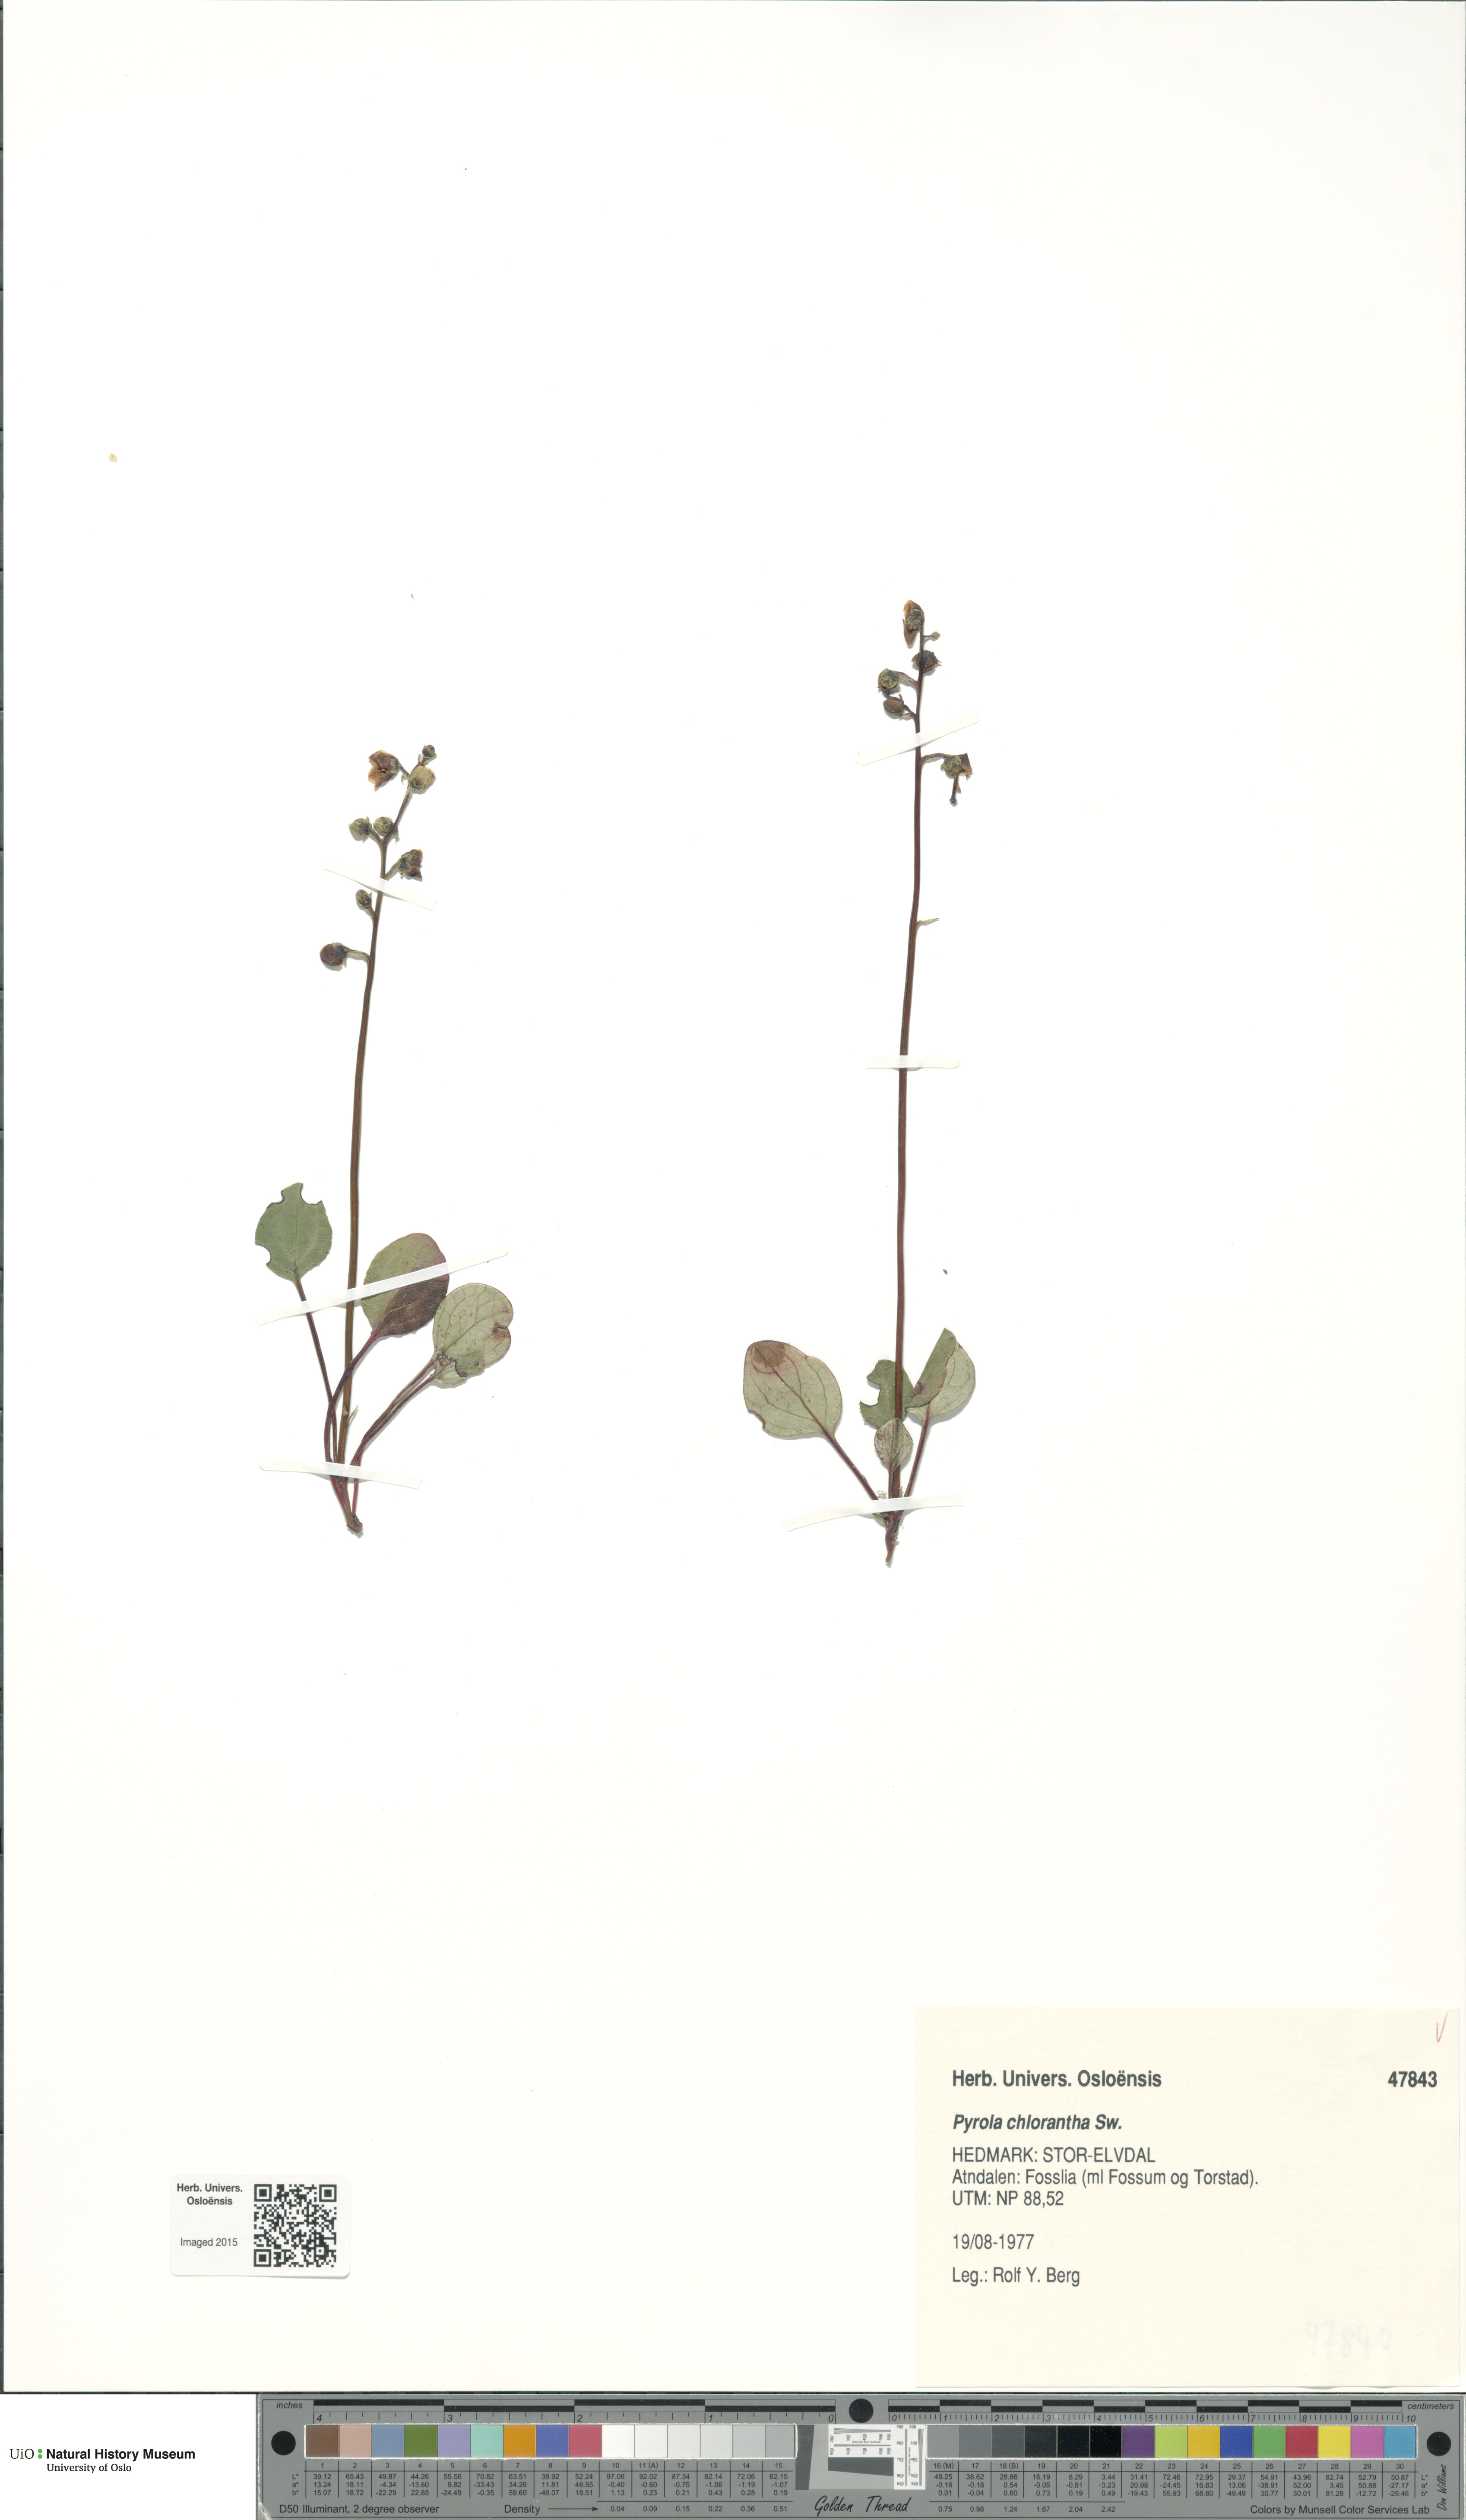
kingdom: Plantae
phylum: Tracheophyta
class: Magnoliopsida
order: Ericales
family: Ericaceae
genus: Pyrola
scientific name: Pyrola chlorantha
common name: Green wintergreen
